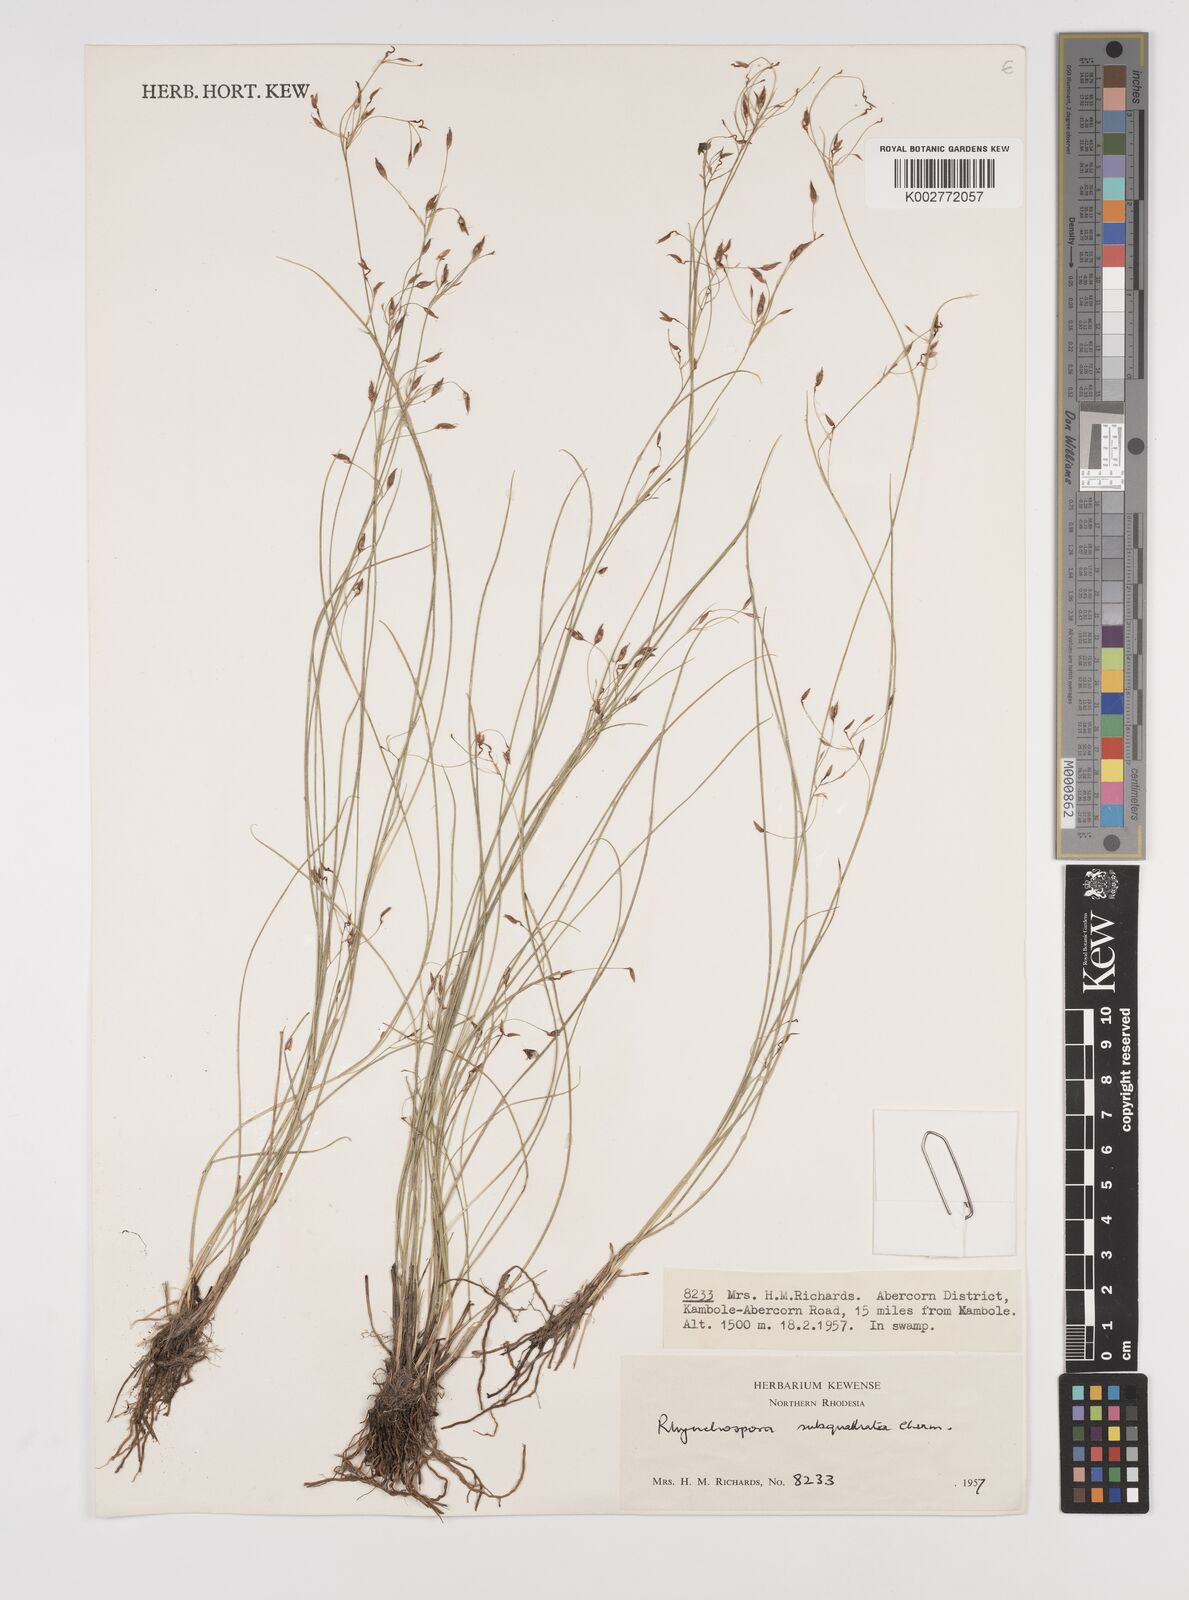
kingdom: Plantae
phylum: Tracheophyta
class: Liliopsida
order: Poales
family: Cyperaceae
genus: Rhynchospora
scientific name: Rhynchospora gracillima
